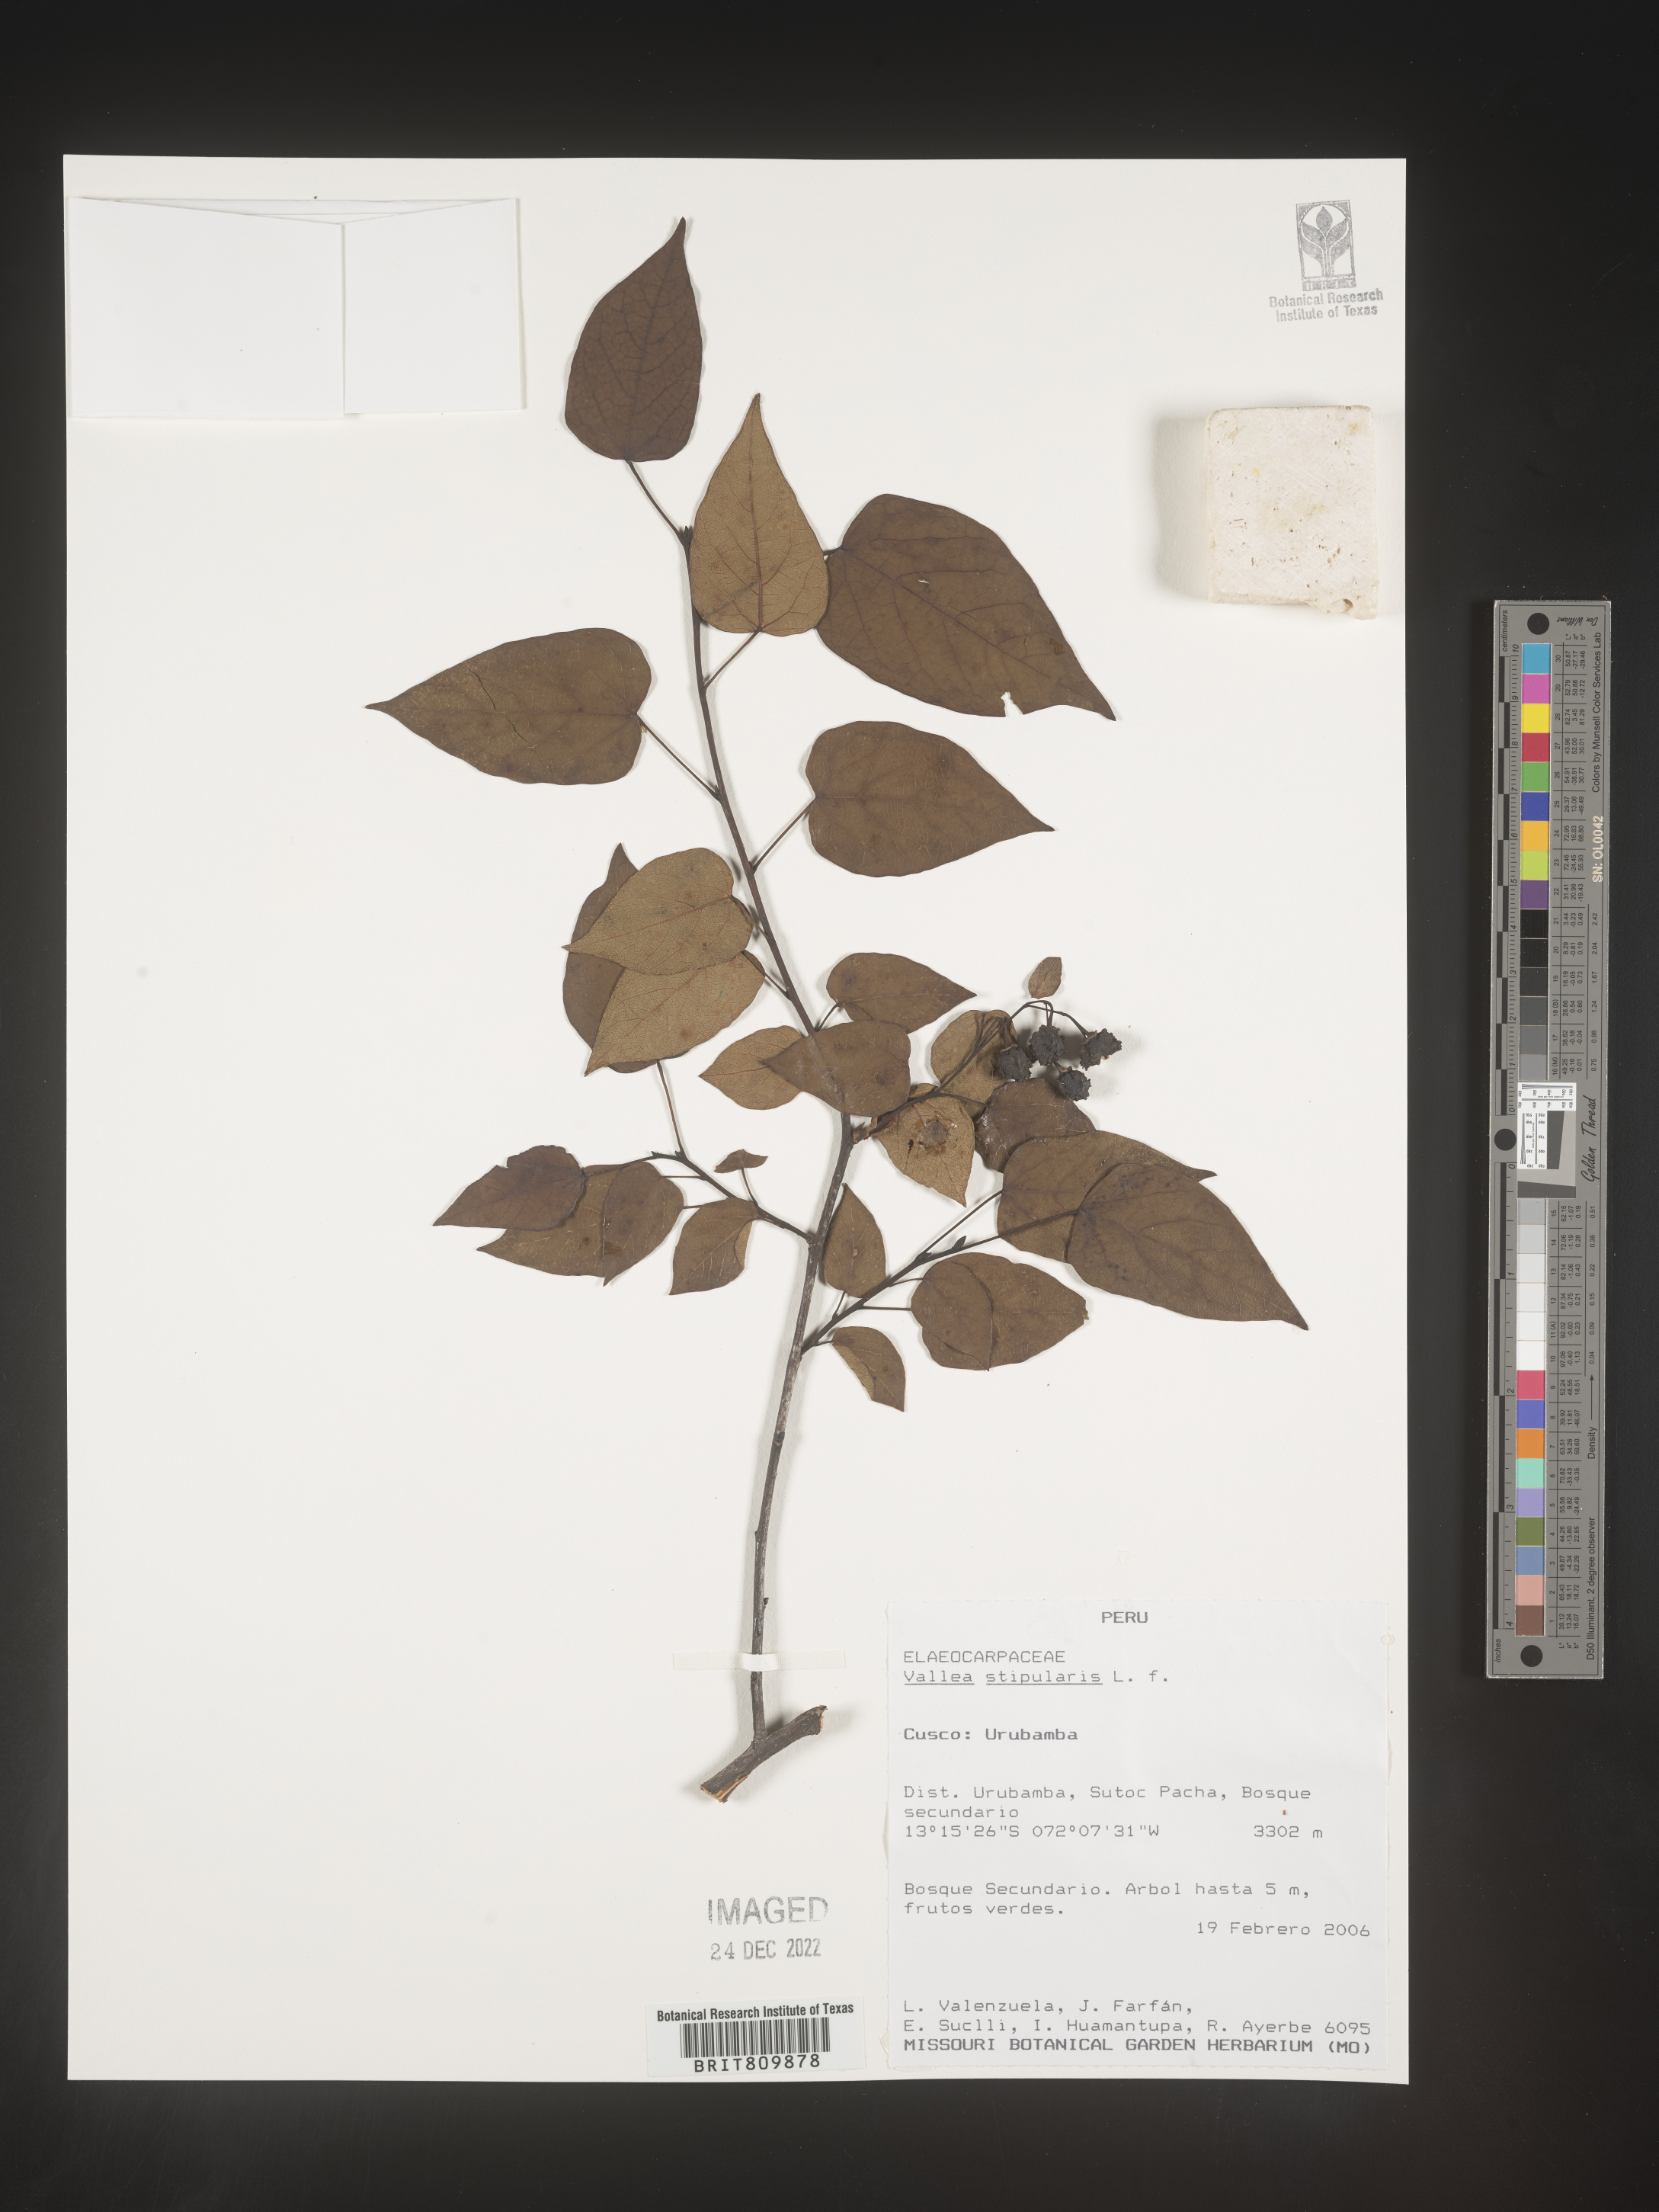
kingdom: Plantae
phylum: Tracheophyta
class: Magnoliopsida
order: Oxalidales
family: Elaeocarpaceae
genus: Vallea
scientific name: Vallea
